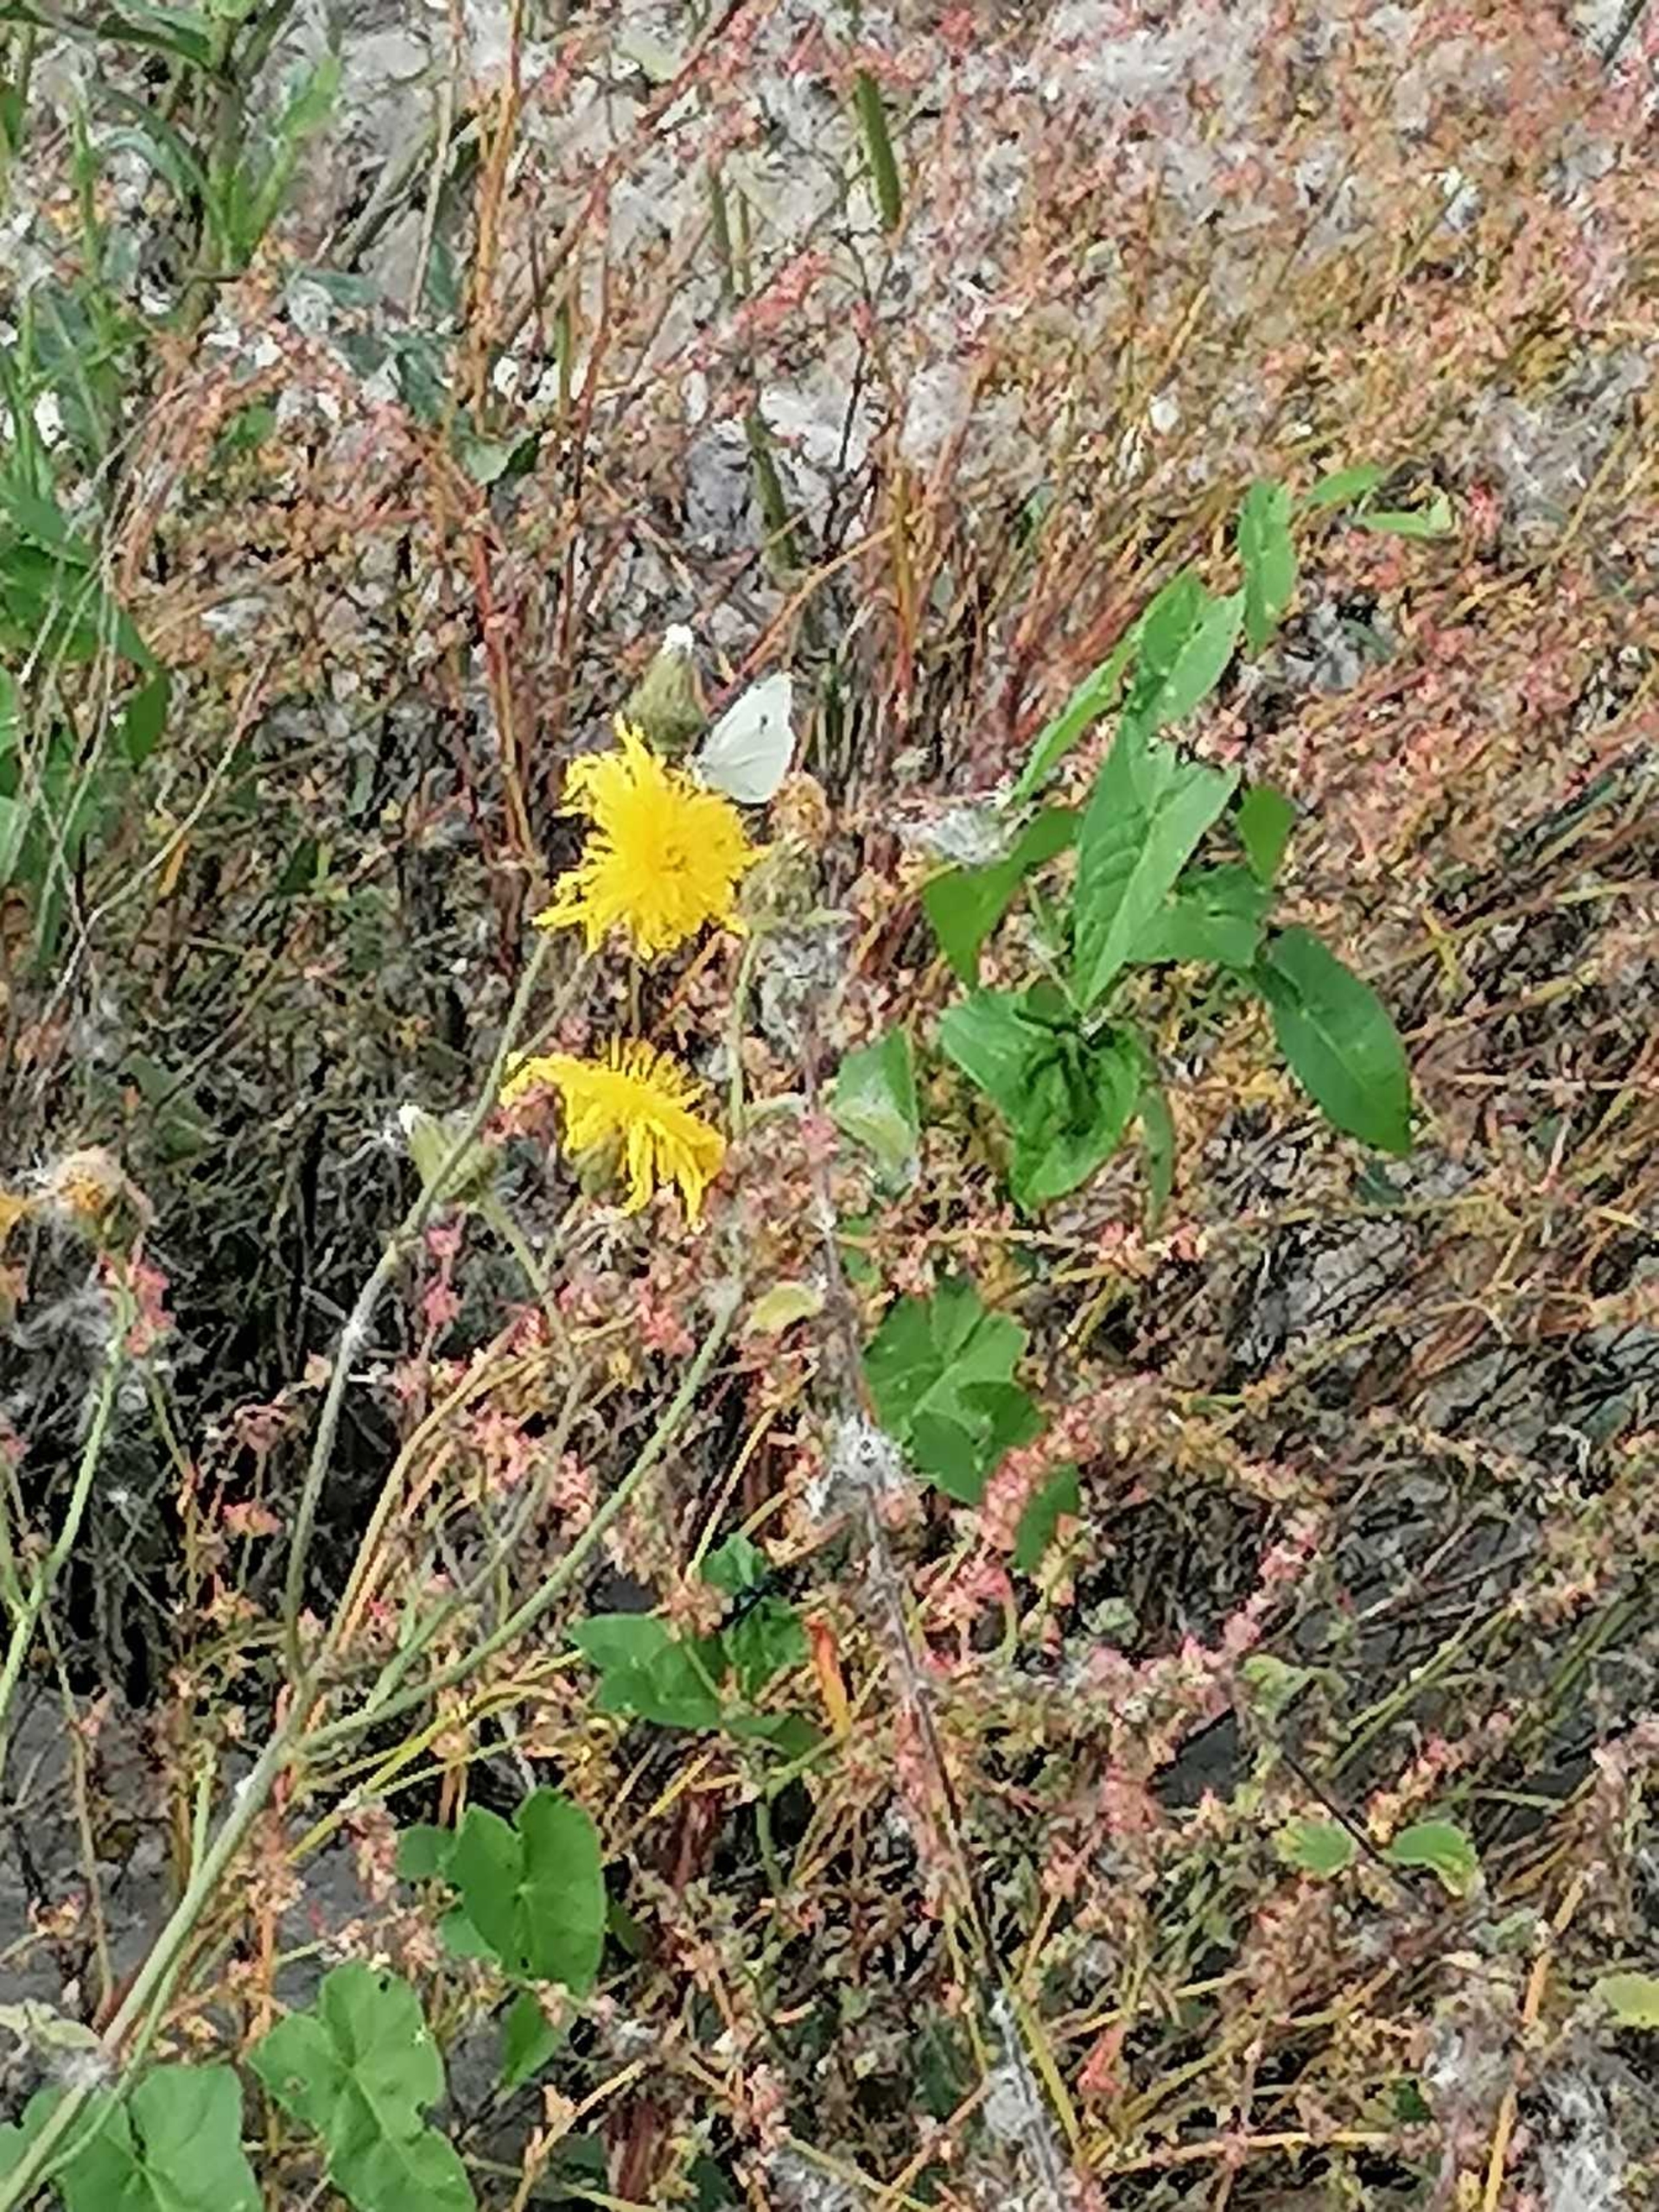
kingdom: Animalia
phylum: Arthropoda
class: Insecta
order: Lepidoptera
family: Pieridae
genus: Pieris
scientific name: Pieris rapae
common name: Lille kålsommerfugl
